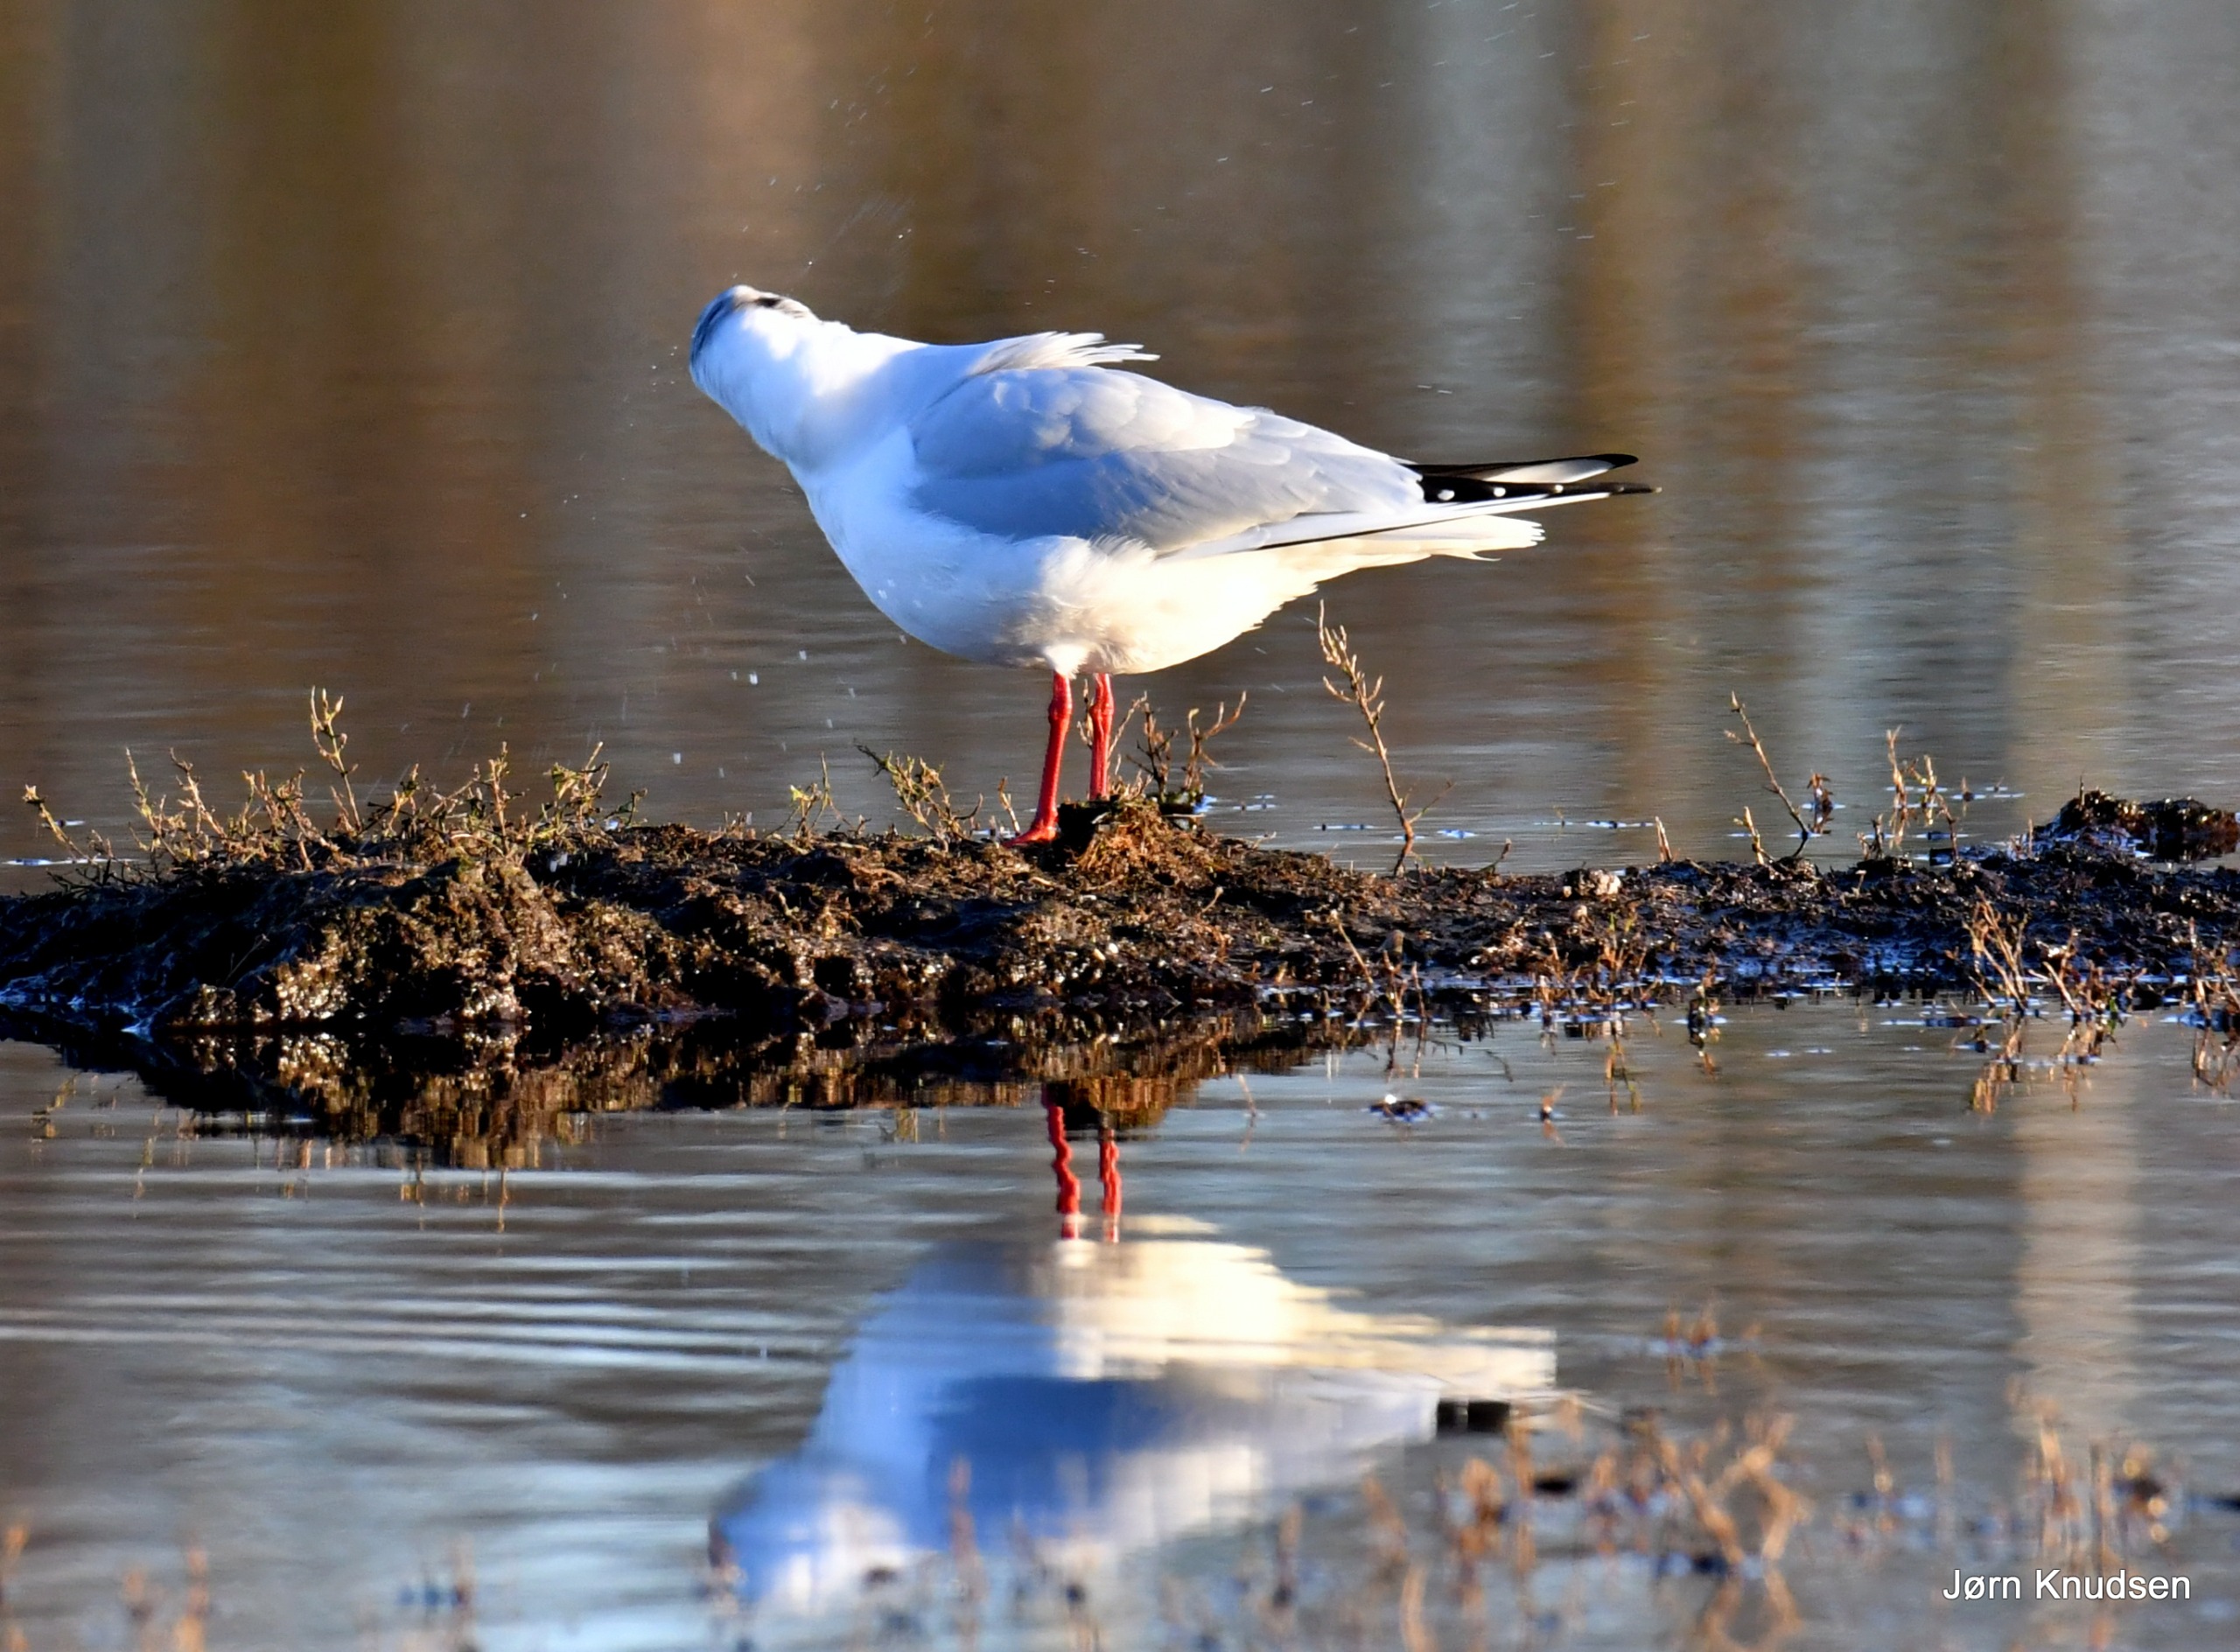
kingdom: Animalia
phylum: Chordata
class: Aves
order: Charadriiformes
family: Laridae
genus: Chroicocephalus
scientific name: Chroicocephalus ridibundus
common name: Hættemåge
